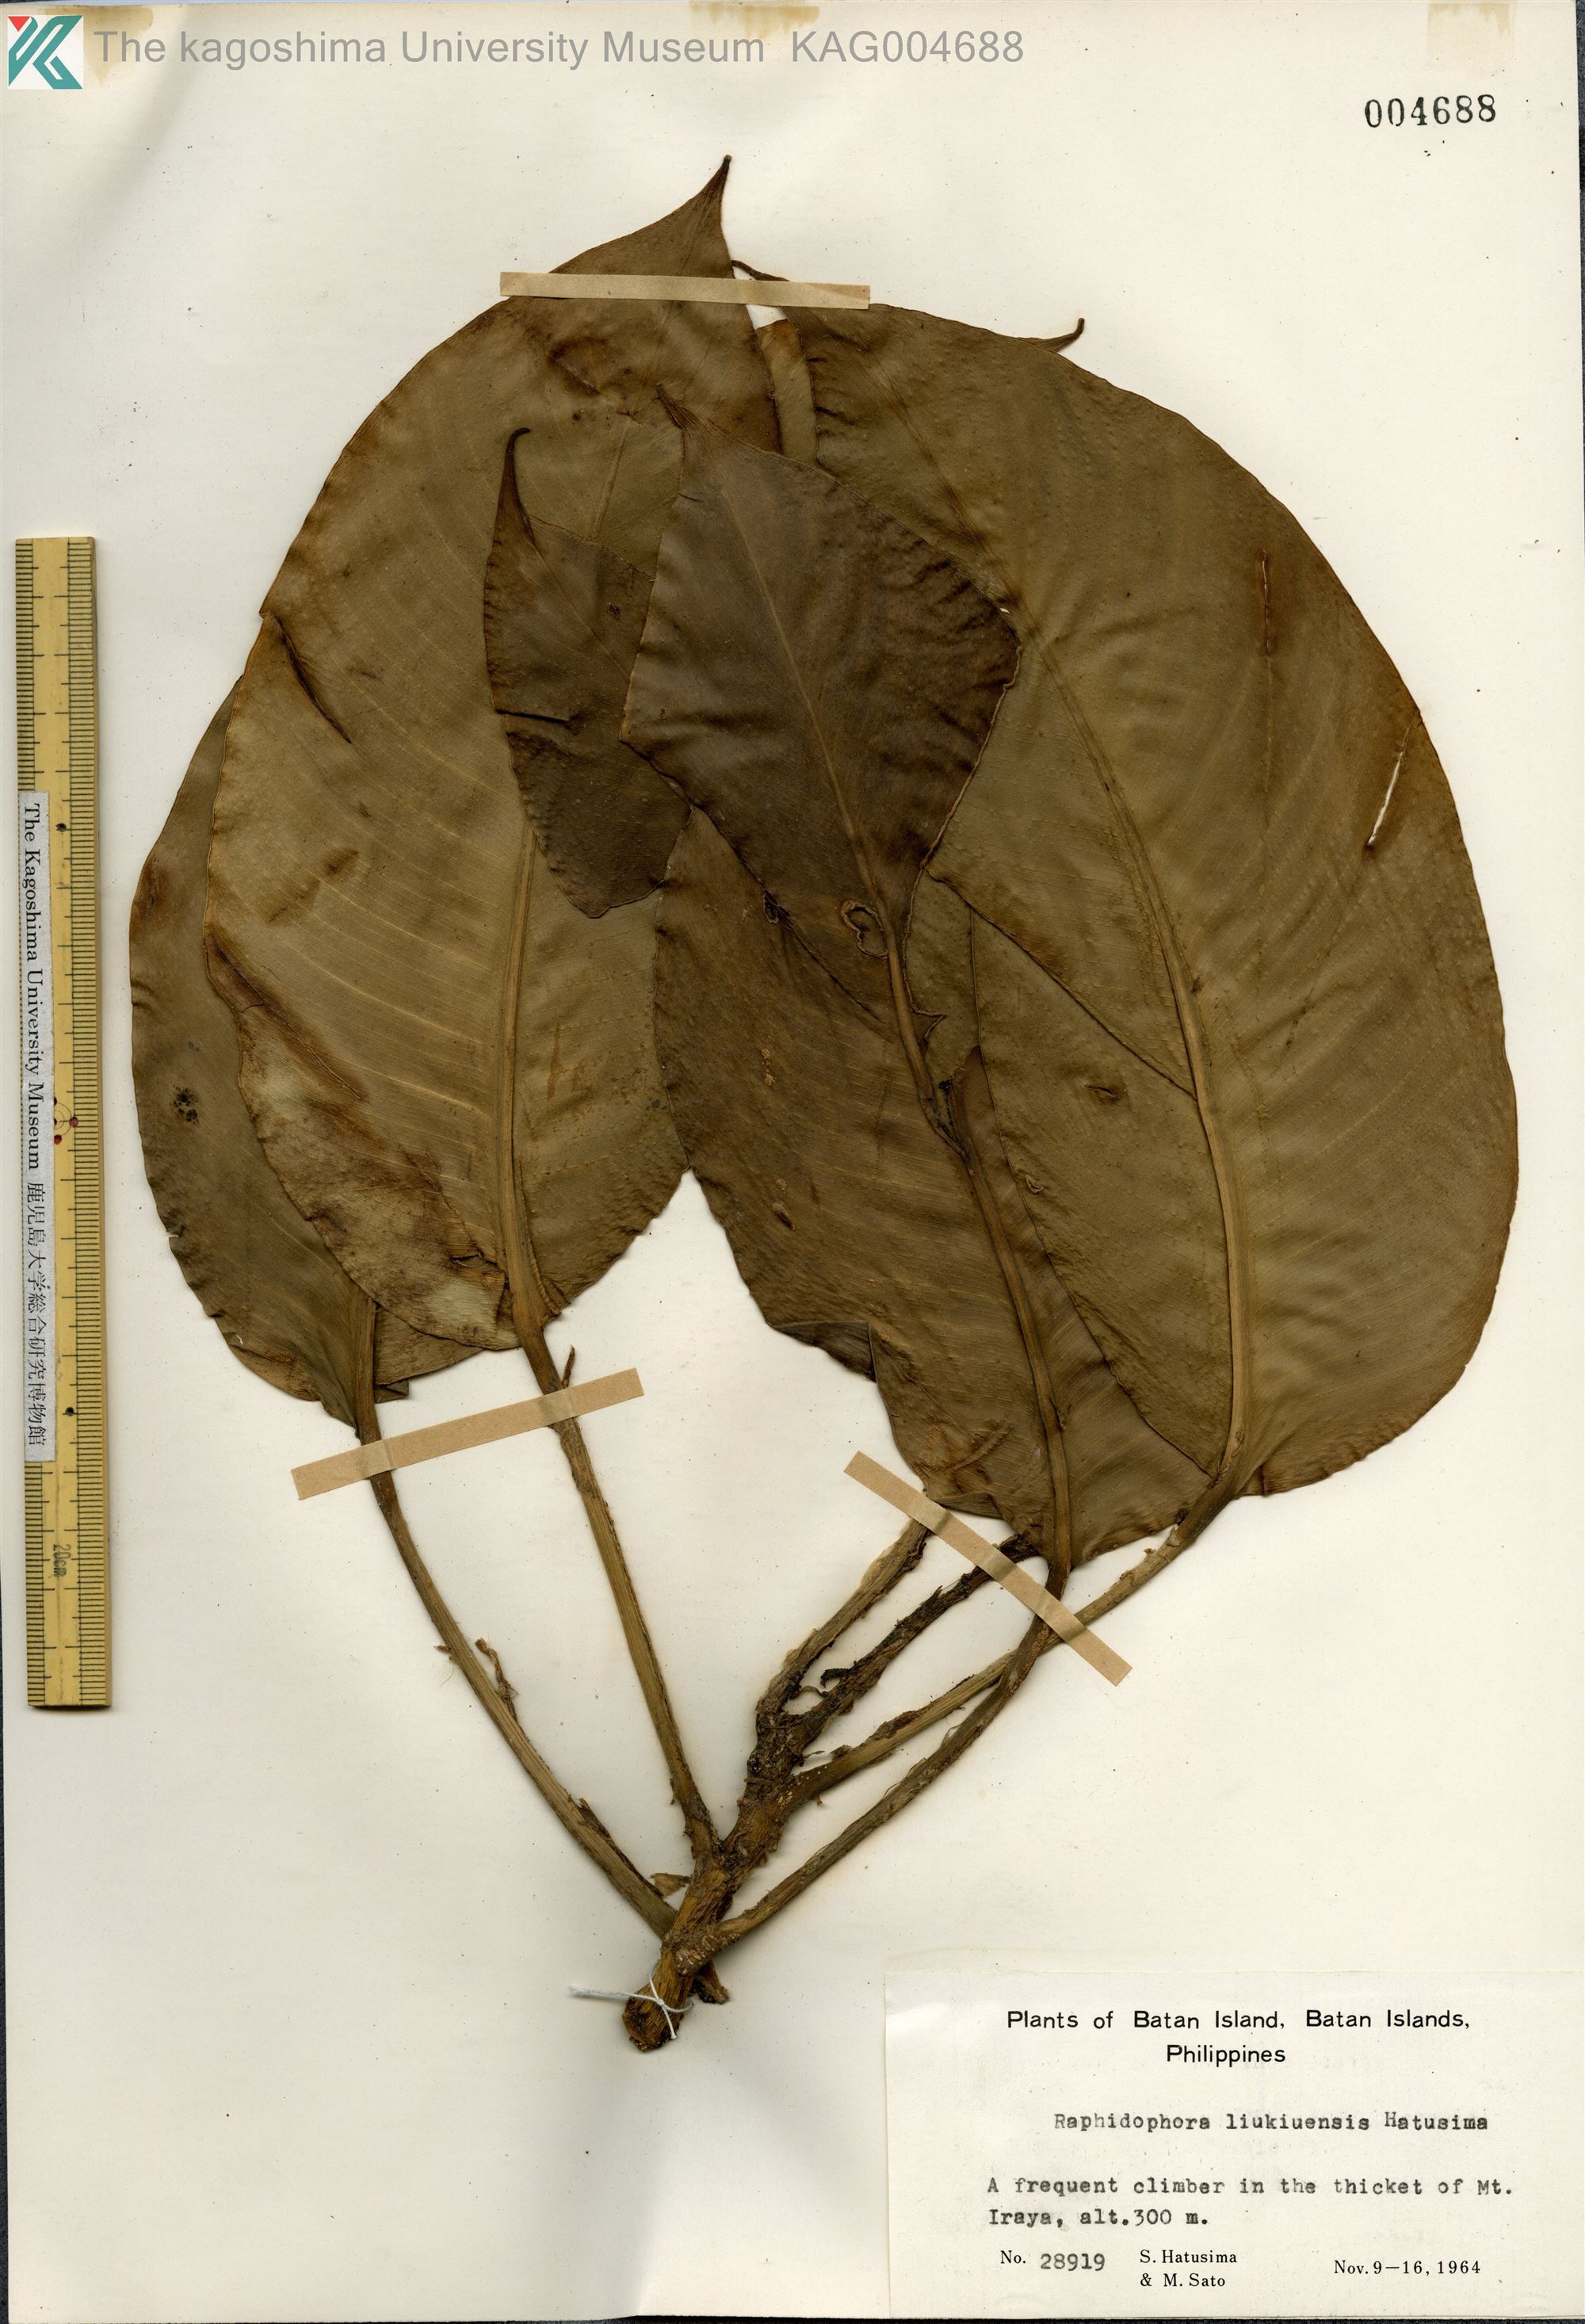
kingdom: Plantae
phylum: Tracheophyta
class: Liliopsida
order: Alismatales
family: Araceae
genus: Rhaphidophora
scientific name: Rhaphidophora liukiuensis
